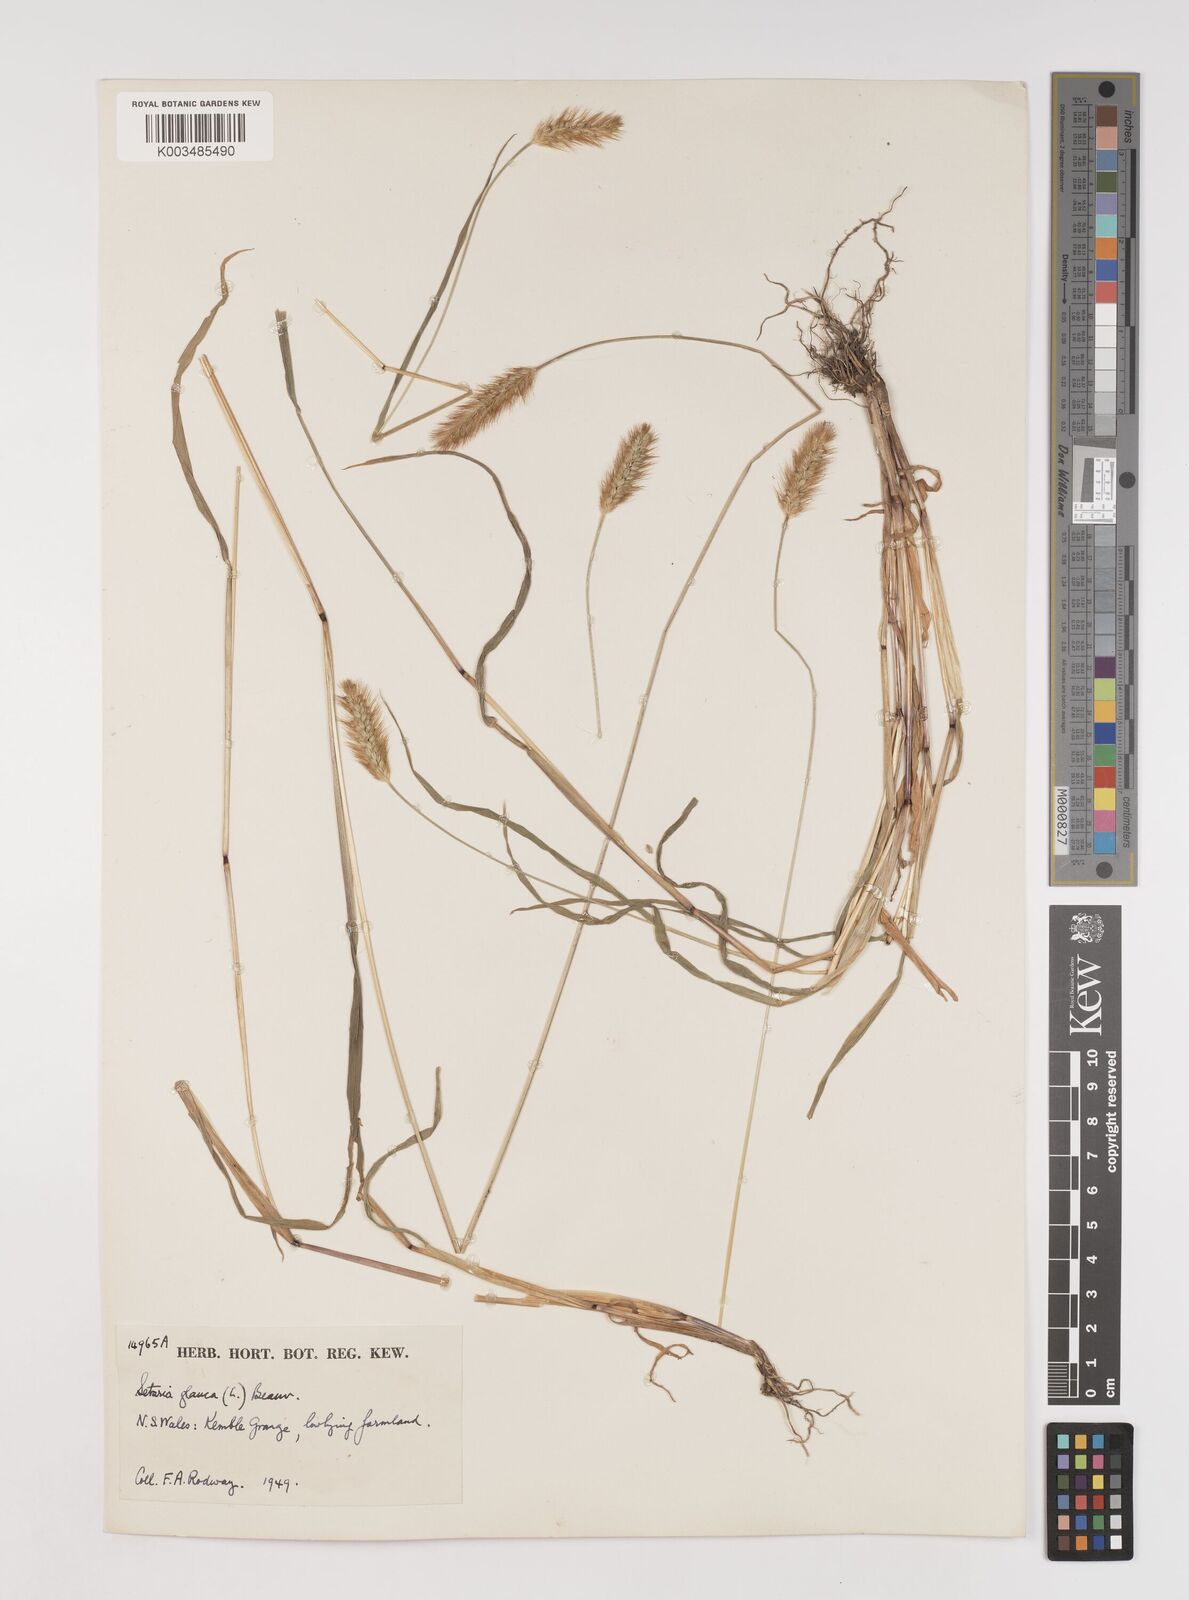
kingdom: Plantae
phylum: Tracheophyta
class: Liliopsida
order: Poales
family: Poaceae
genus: Setaria
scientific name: Setaria pumila
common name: Yellow bristle-grass
